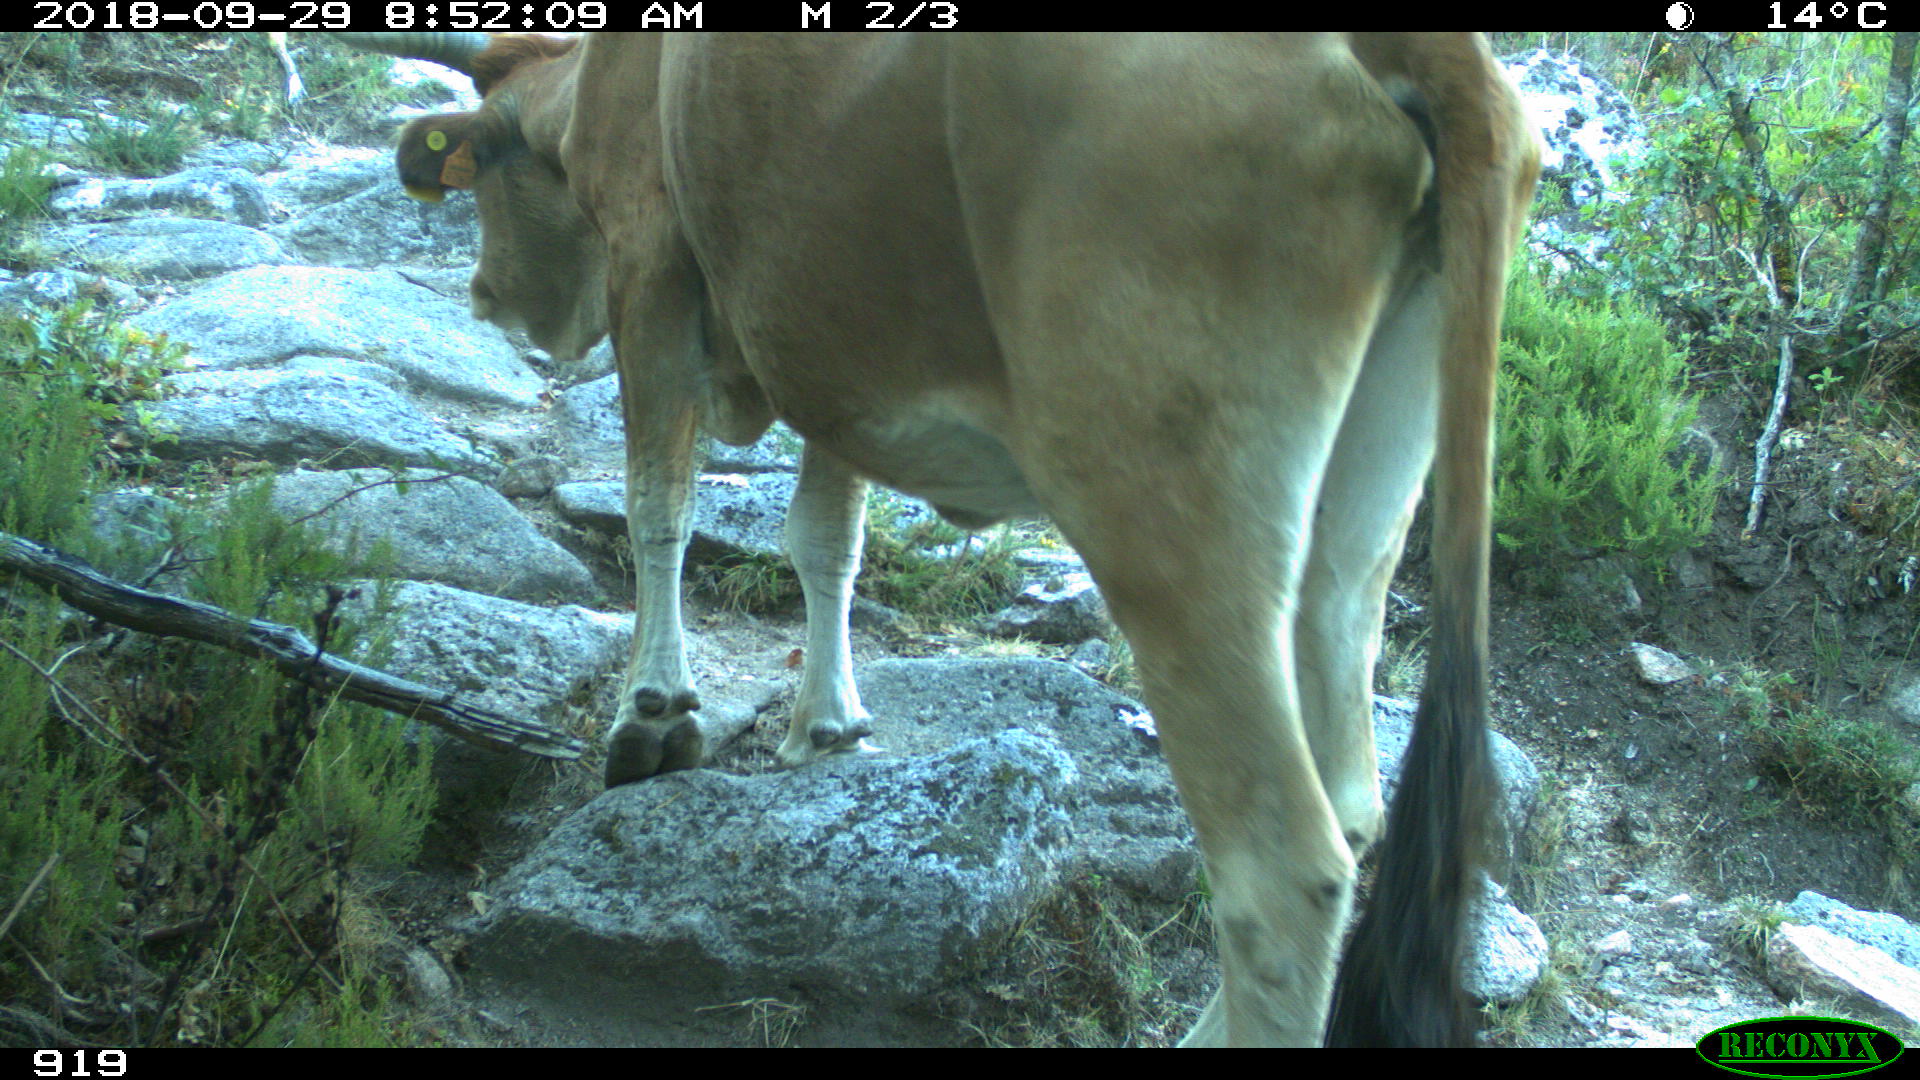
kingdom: Animalia
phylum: Chordata
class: Mammalia
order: Artiodactyla
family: Bovidae
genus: Bos
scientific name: Bos taurus
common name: Domesticated cattle
